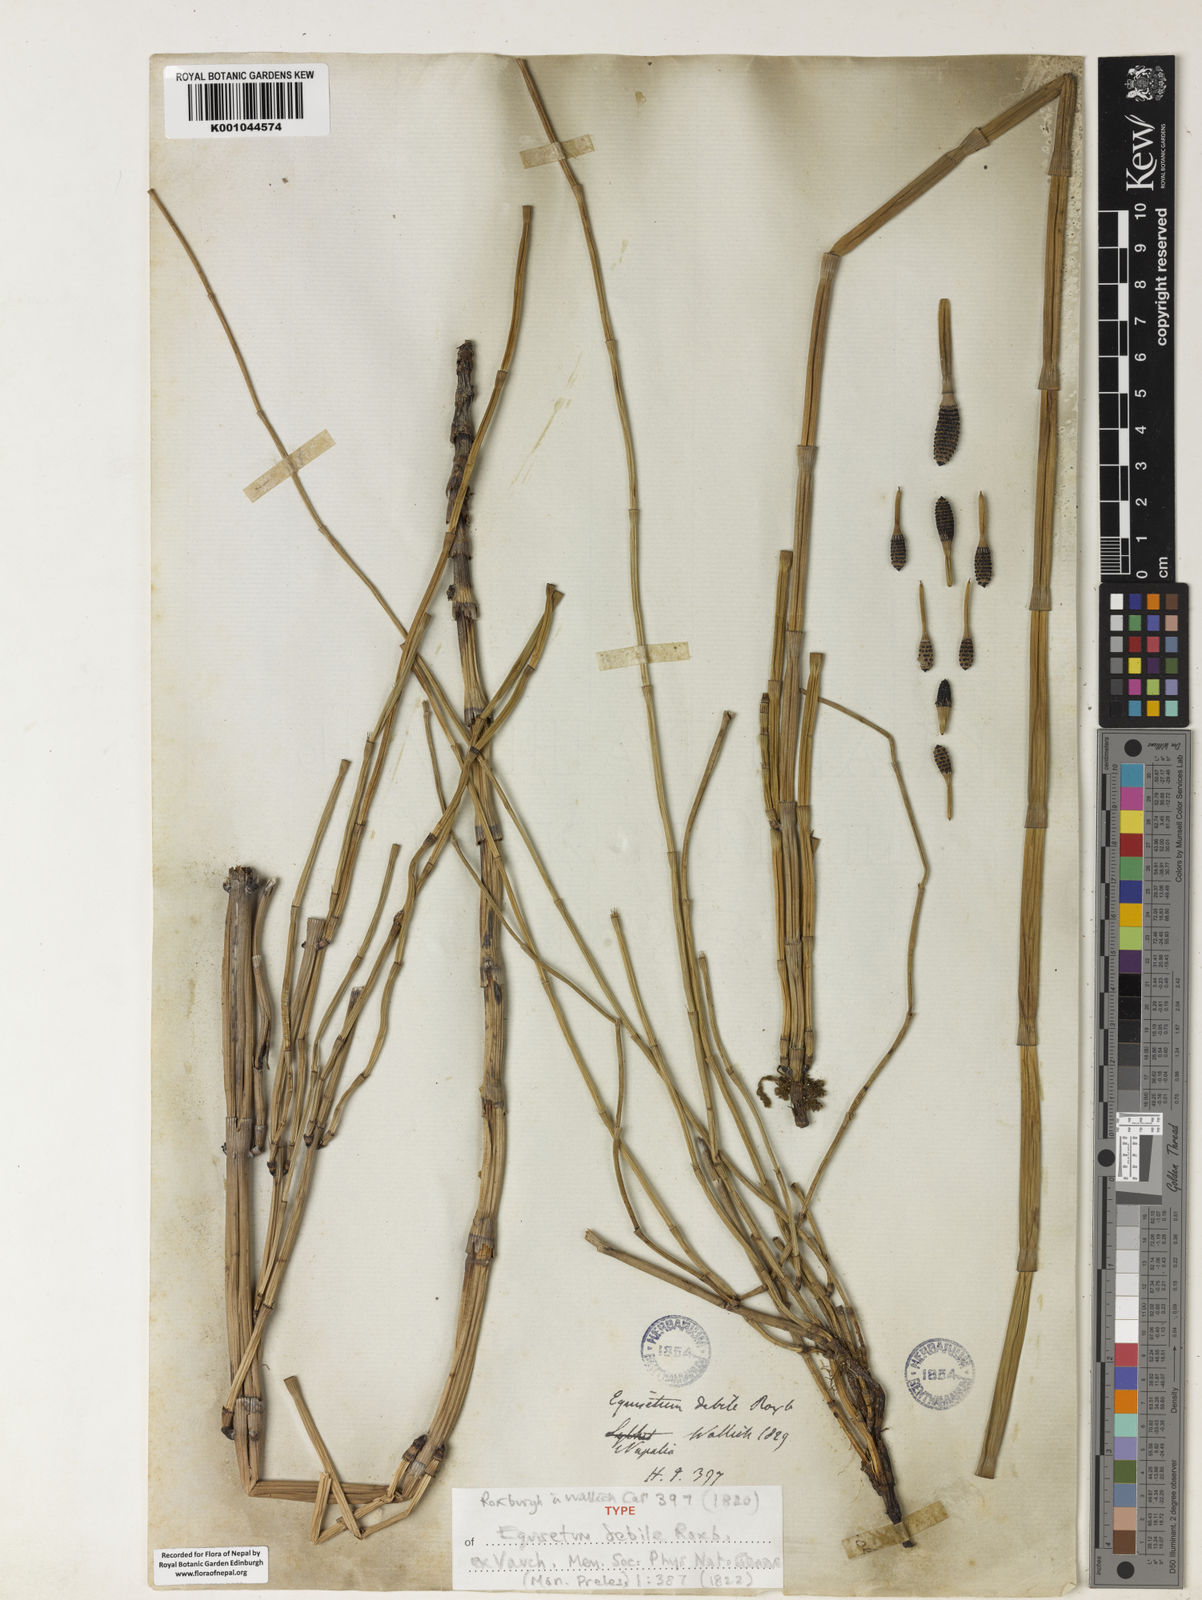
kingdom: Plantae
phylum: Tracheophyta
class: Polypodiopsida
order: Equisetales
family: Equisetaceae
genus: Equisetum
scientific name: Equisetum ramosissimum
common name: Branched horsetail
